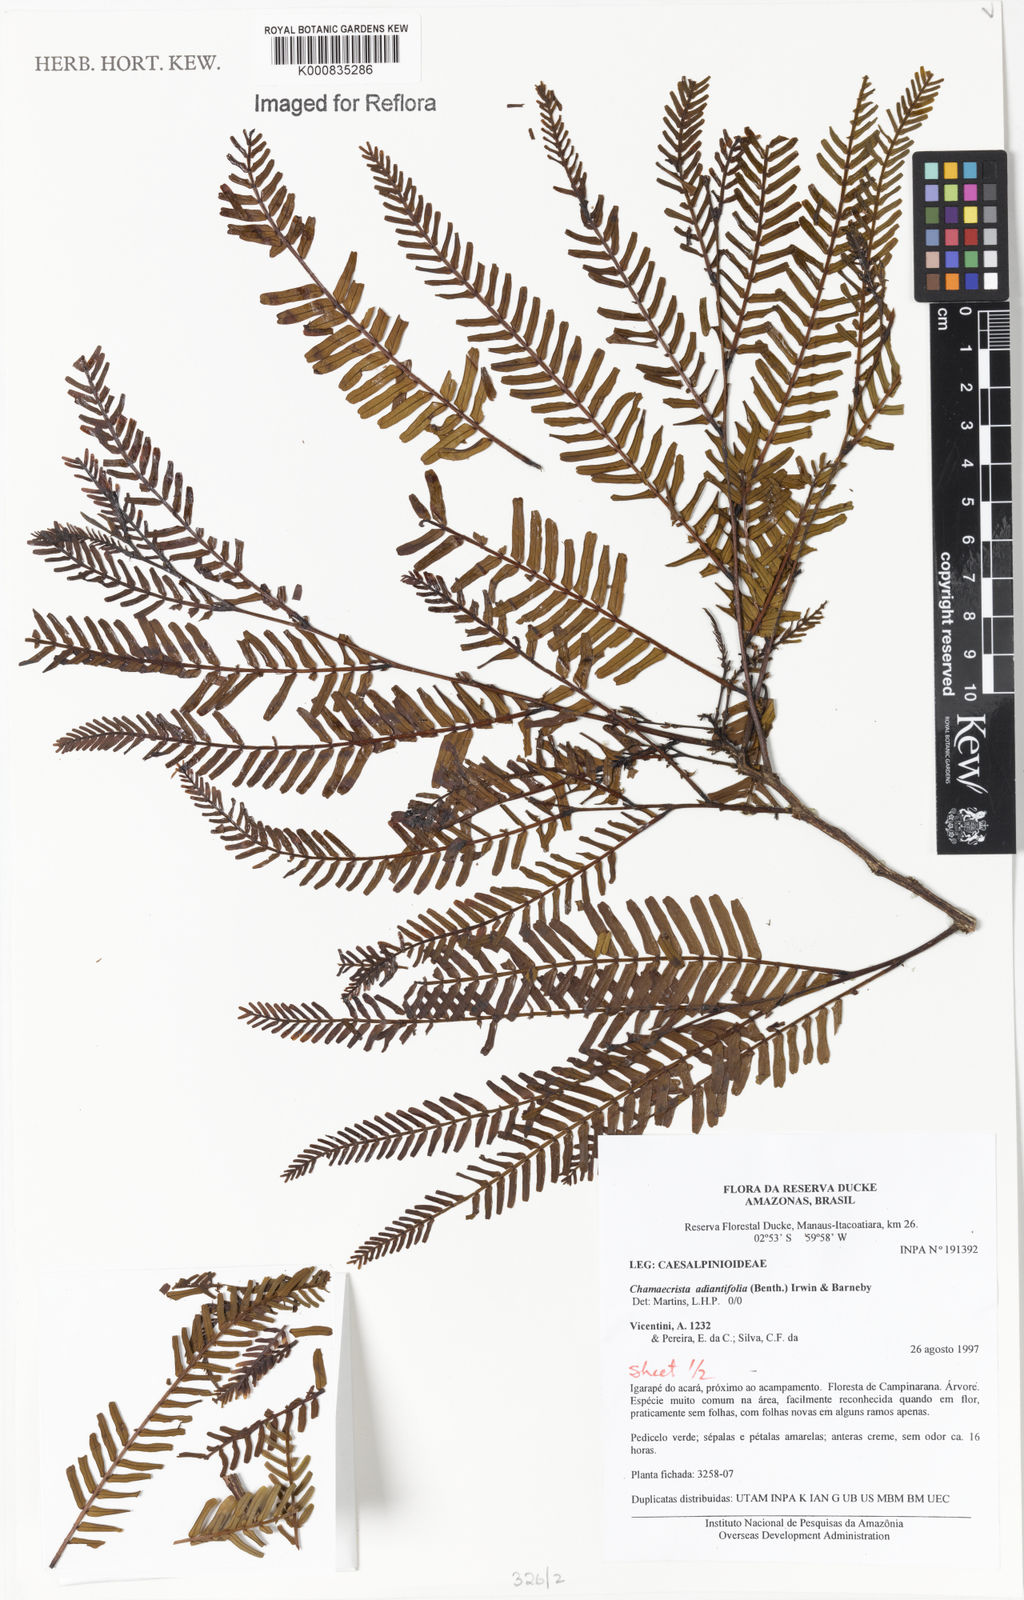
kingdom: Plantae
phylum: Tracheophyta
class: Magnoliopsida
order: Fabales
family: Fabaceae
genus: Chamaecrista
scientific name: Chamaecrista adiantifolia
